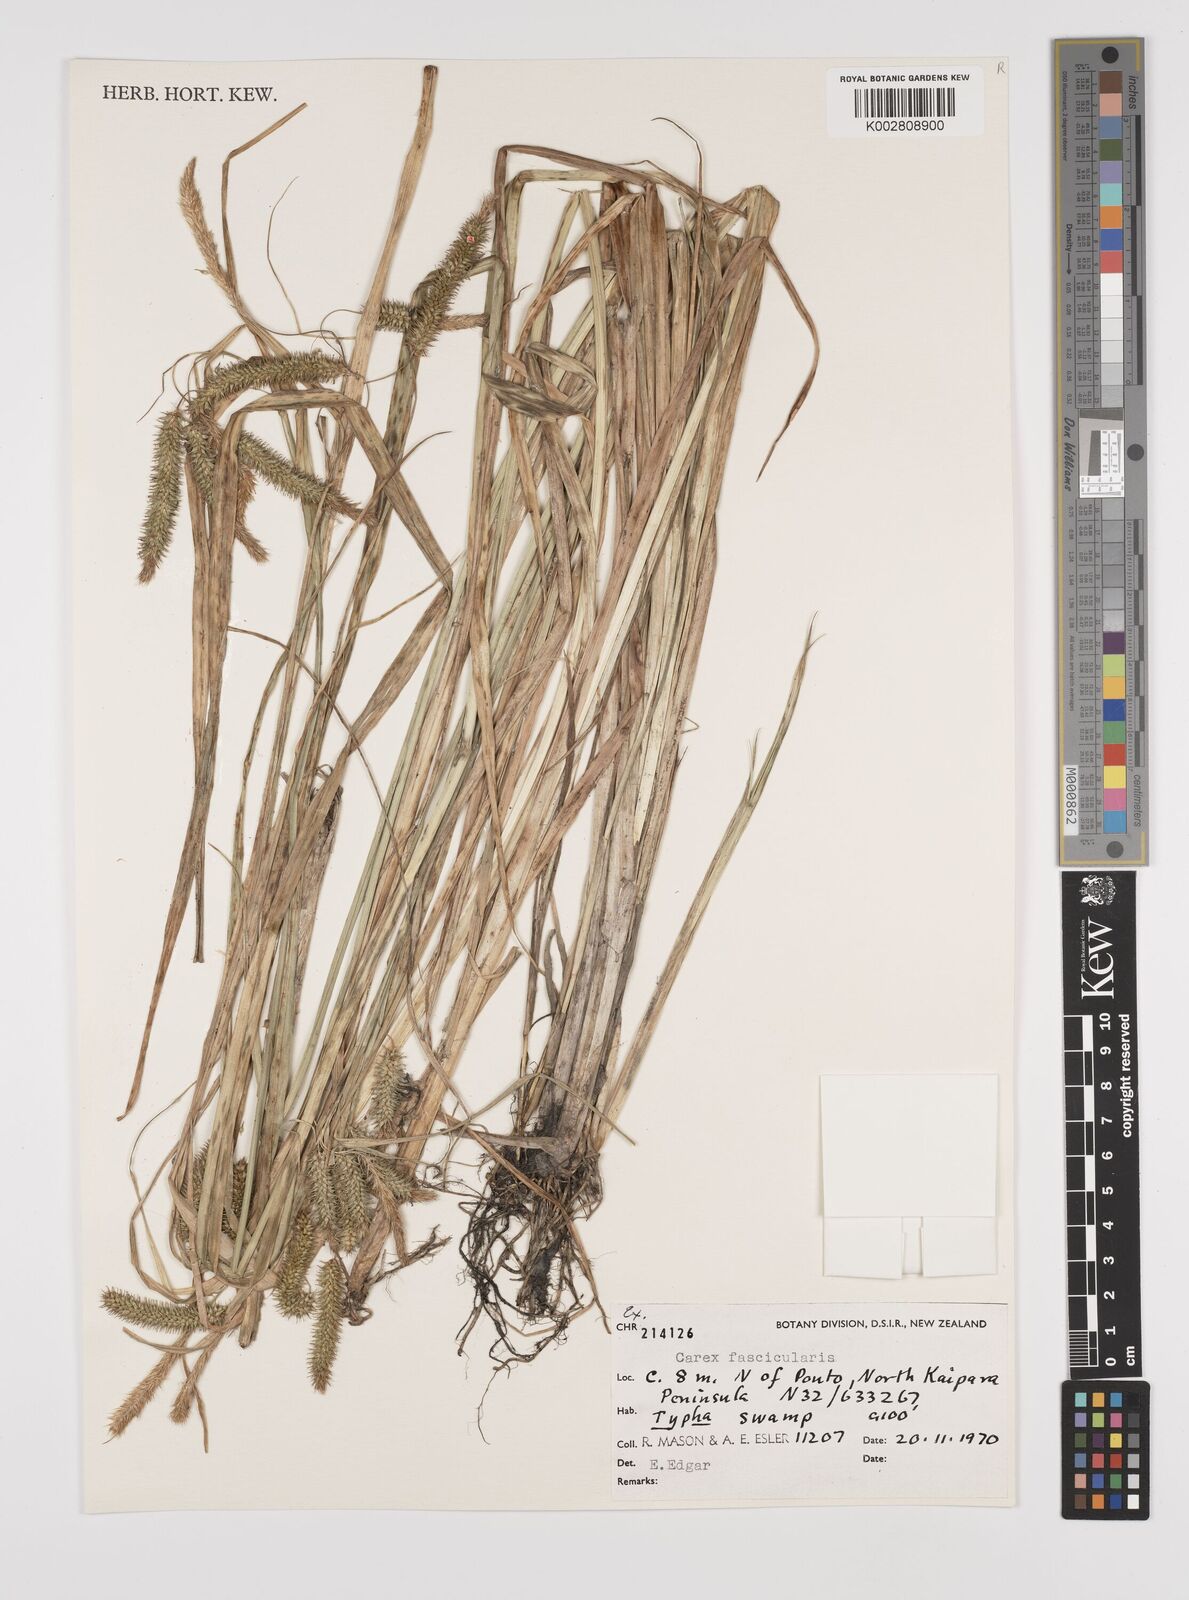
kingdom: Plantae
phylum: Tracheophyta
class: Liliopsida
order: Poales
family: Cyperaceae
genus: Carex
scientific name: Carex pseudocyperus
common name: Cyperus sedge
